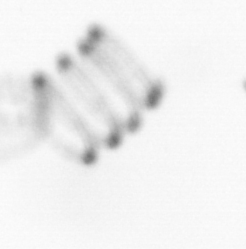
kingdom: Chromista
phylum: Ochrophyta
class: Bacillariophyceae
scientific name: Bacillariophyceae
